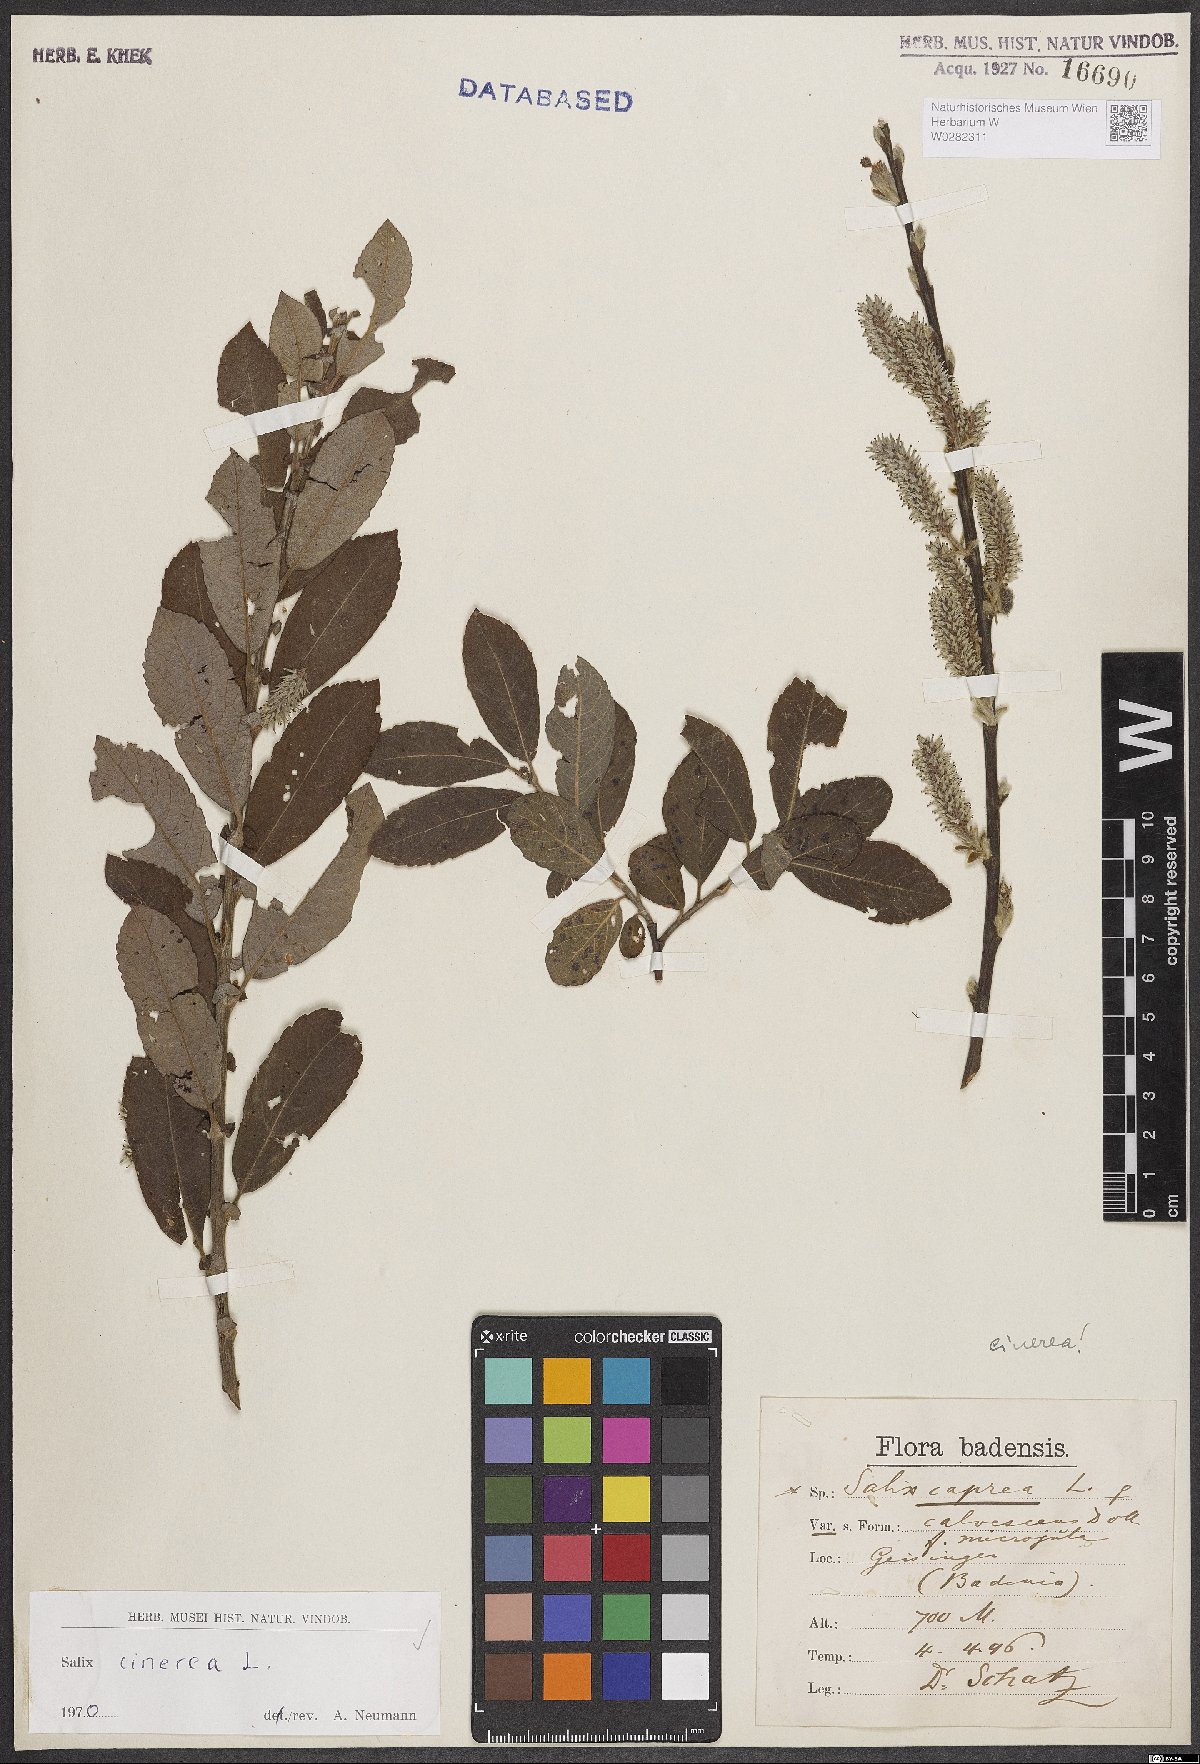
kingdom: Plantae
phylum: Tracheophyta
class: Magnoliopsida
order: Malpighiales
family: Salicaceae
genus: Salix
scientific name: Salix cinerea
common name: Common sallow
